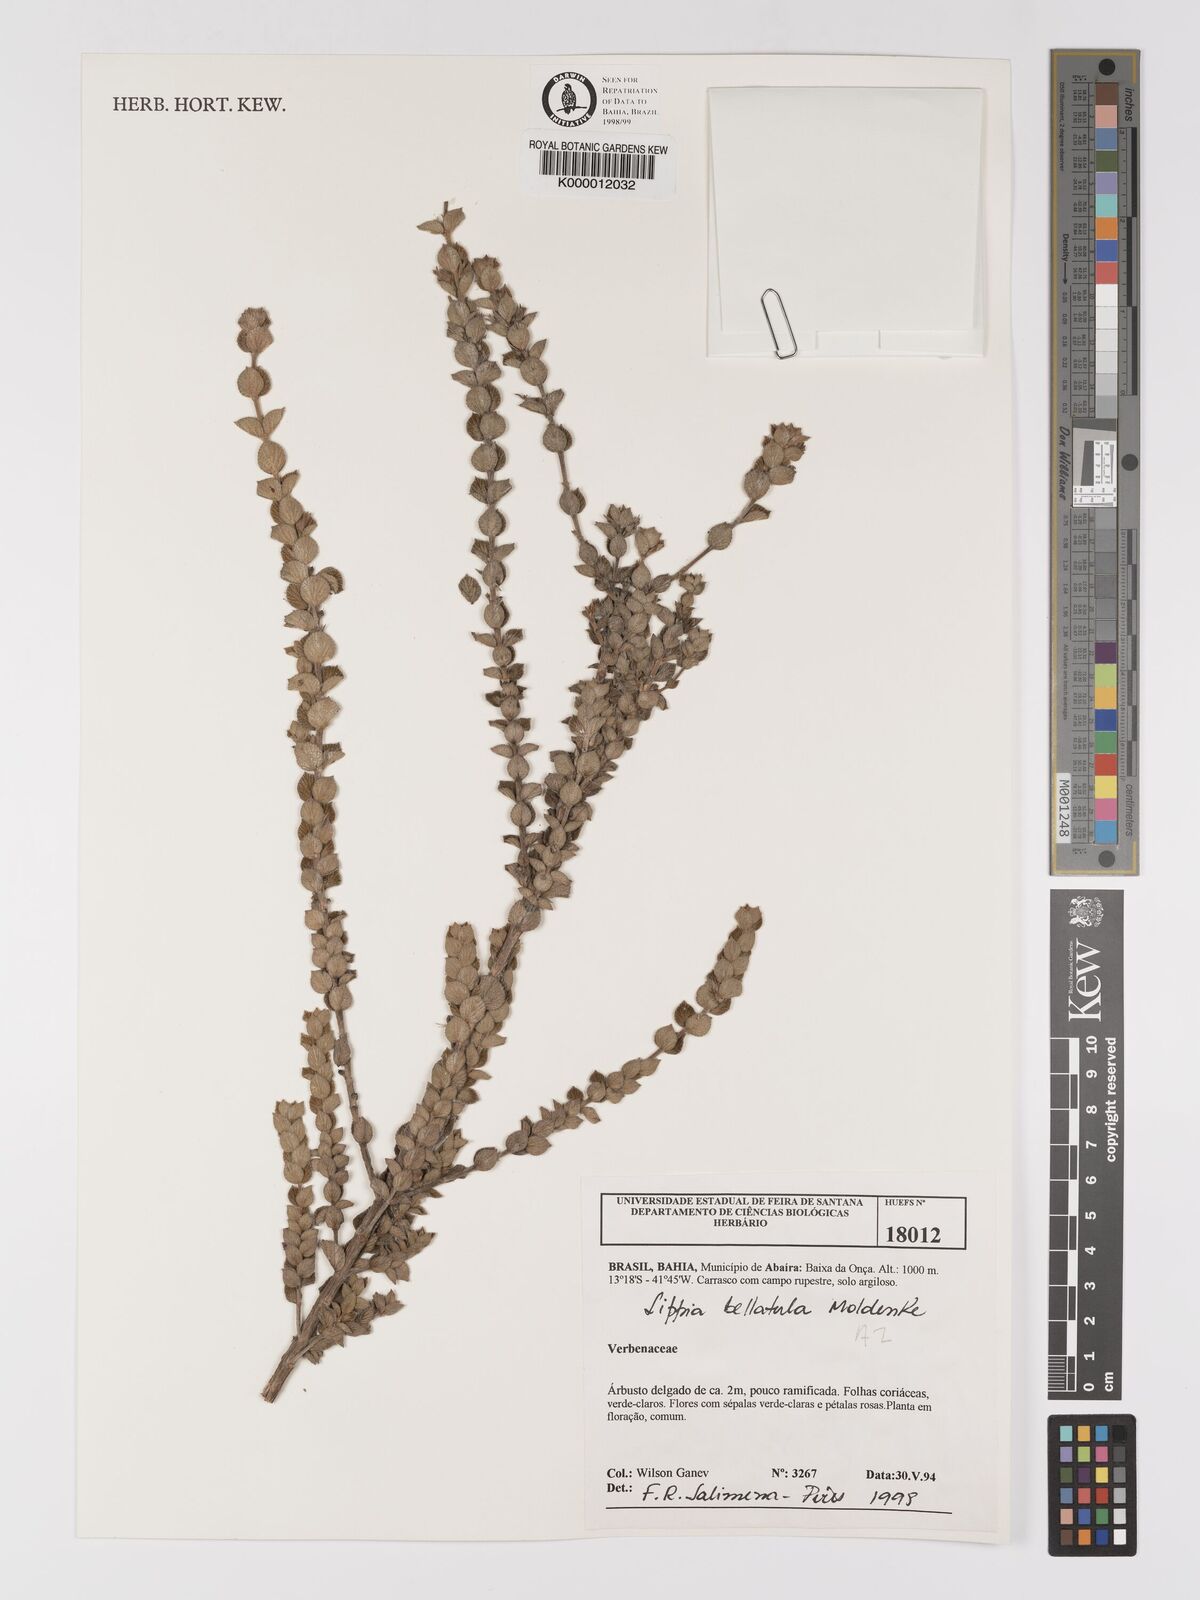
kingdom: Plantae
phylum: Tracheophyta
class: Magnoliopsida
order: Lamiales
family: Verbenaceae
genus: Lippia
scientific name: Lippia bellatula
